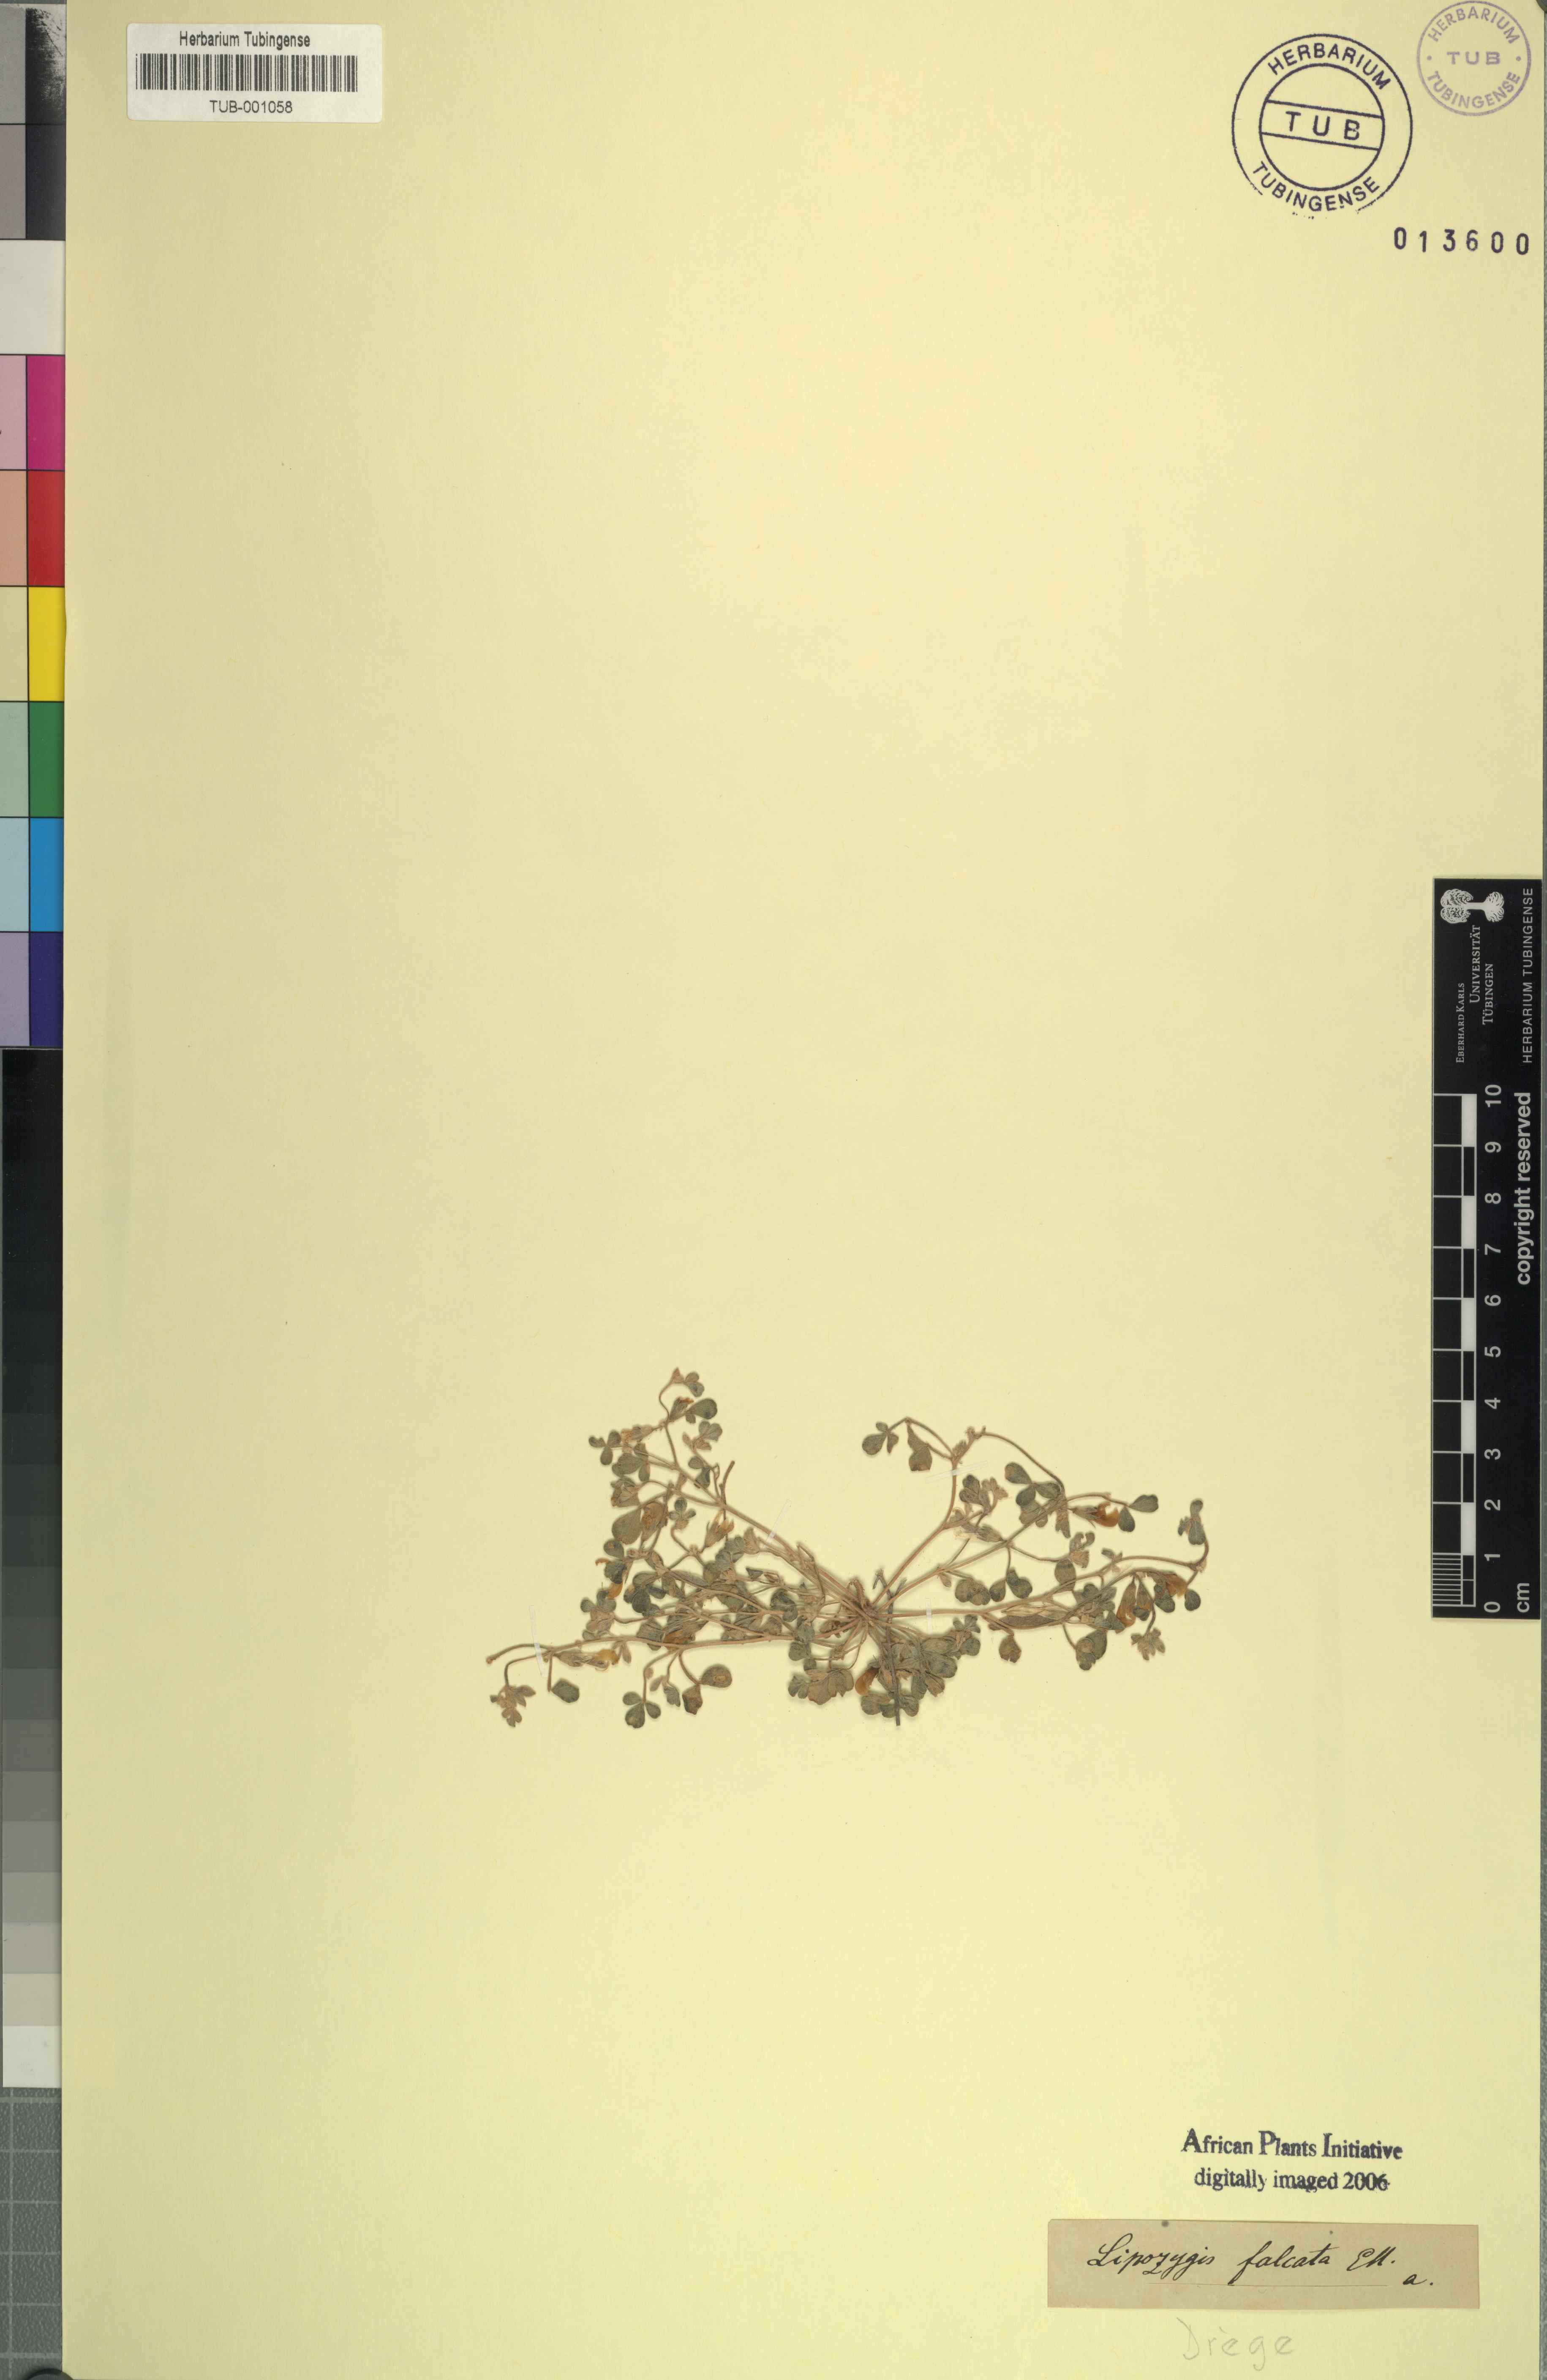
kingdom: Plantae
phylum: Tracheophyta
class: Magnoliopsida
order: Fabales
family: Fabaceae
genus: Lotononis
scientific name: Lotononis falcata
